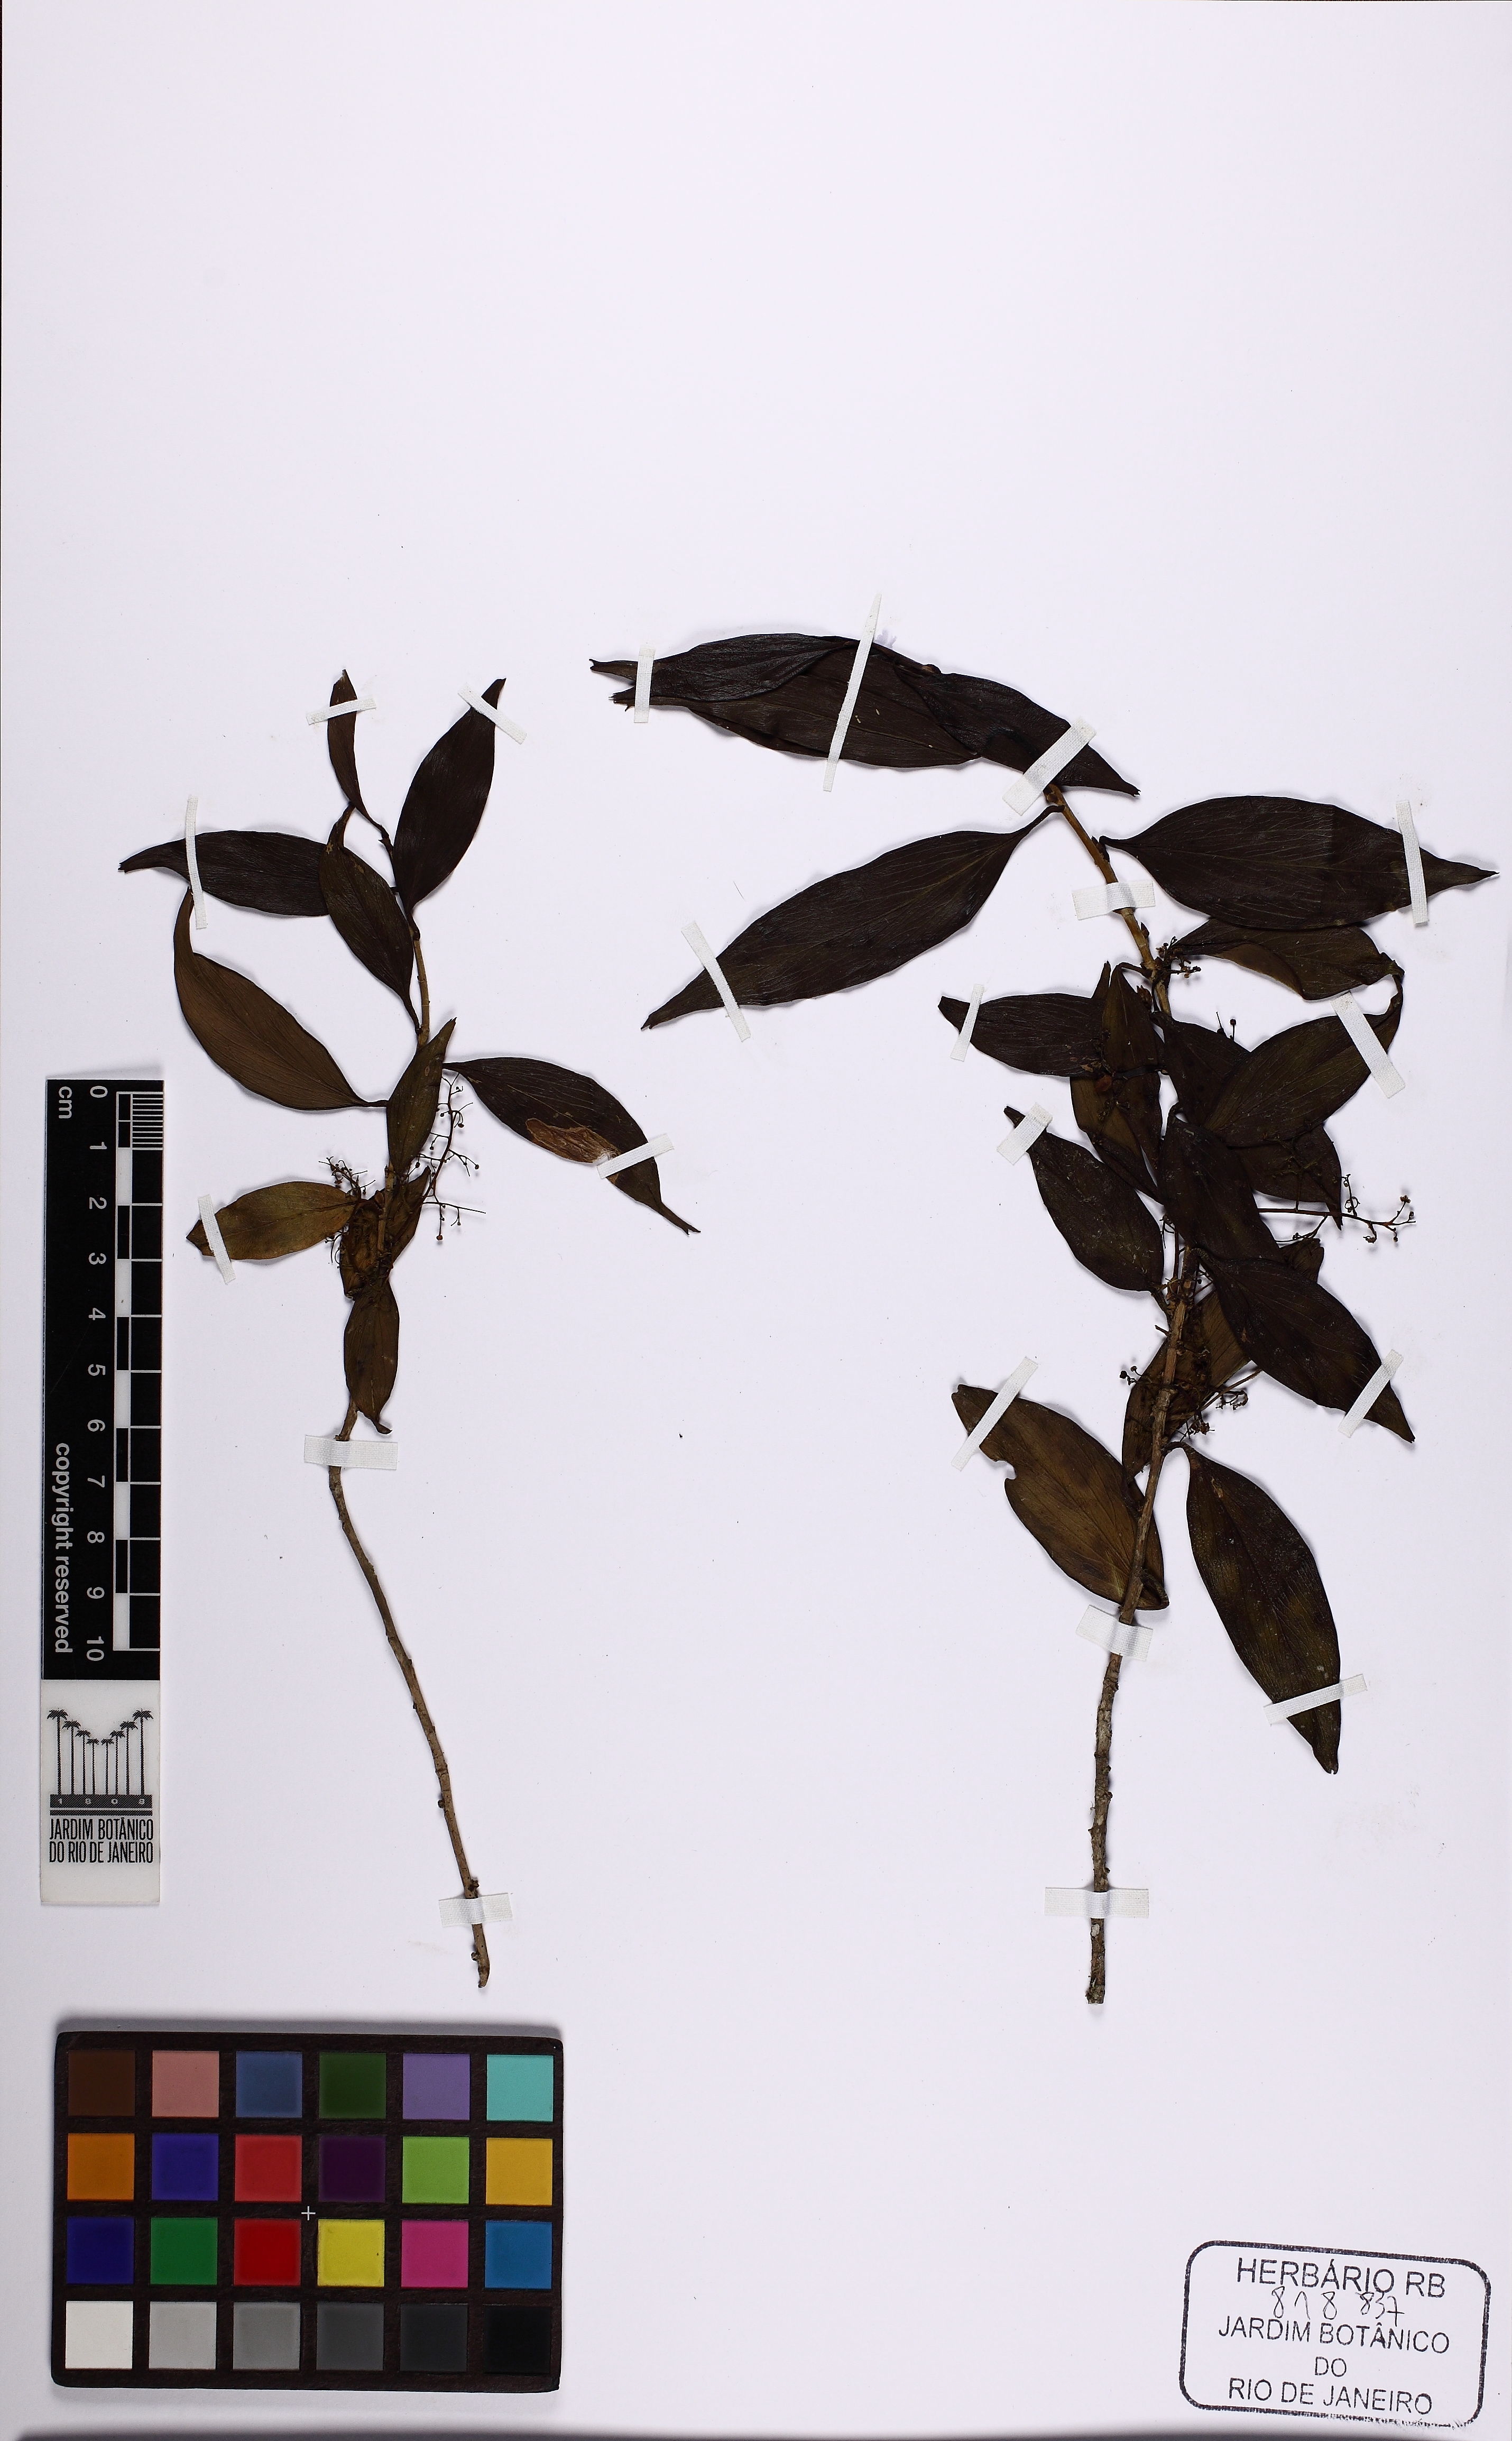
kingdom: Plantae
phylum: Tracheophyta
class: Magnoliopsida
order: Apiales
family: Griseliniaceae
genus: Griselinia
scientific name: Griselinia ruscifolia
